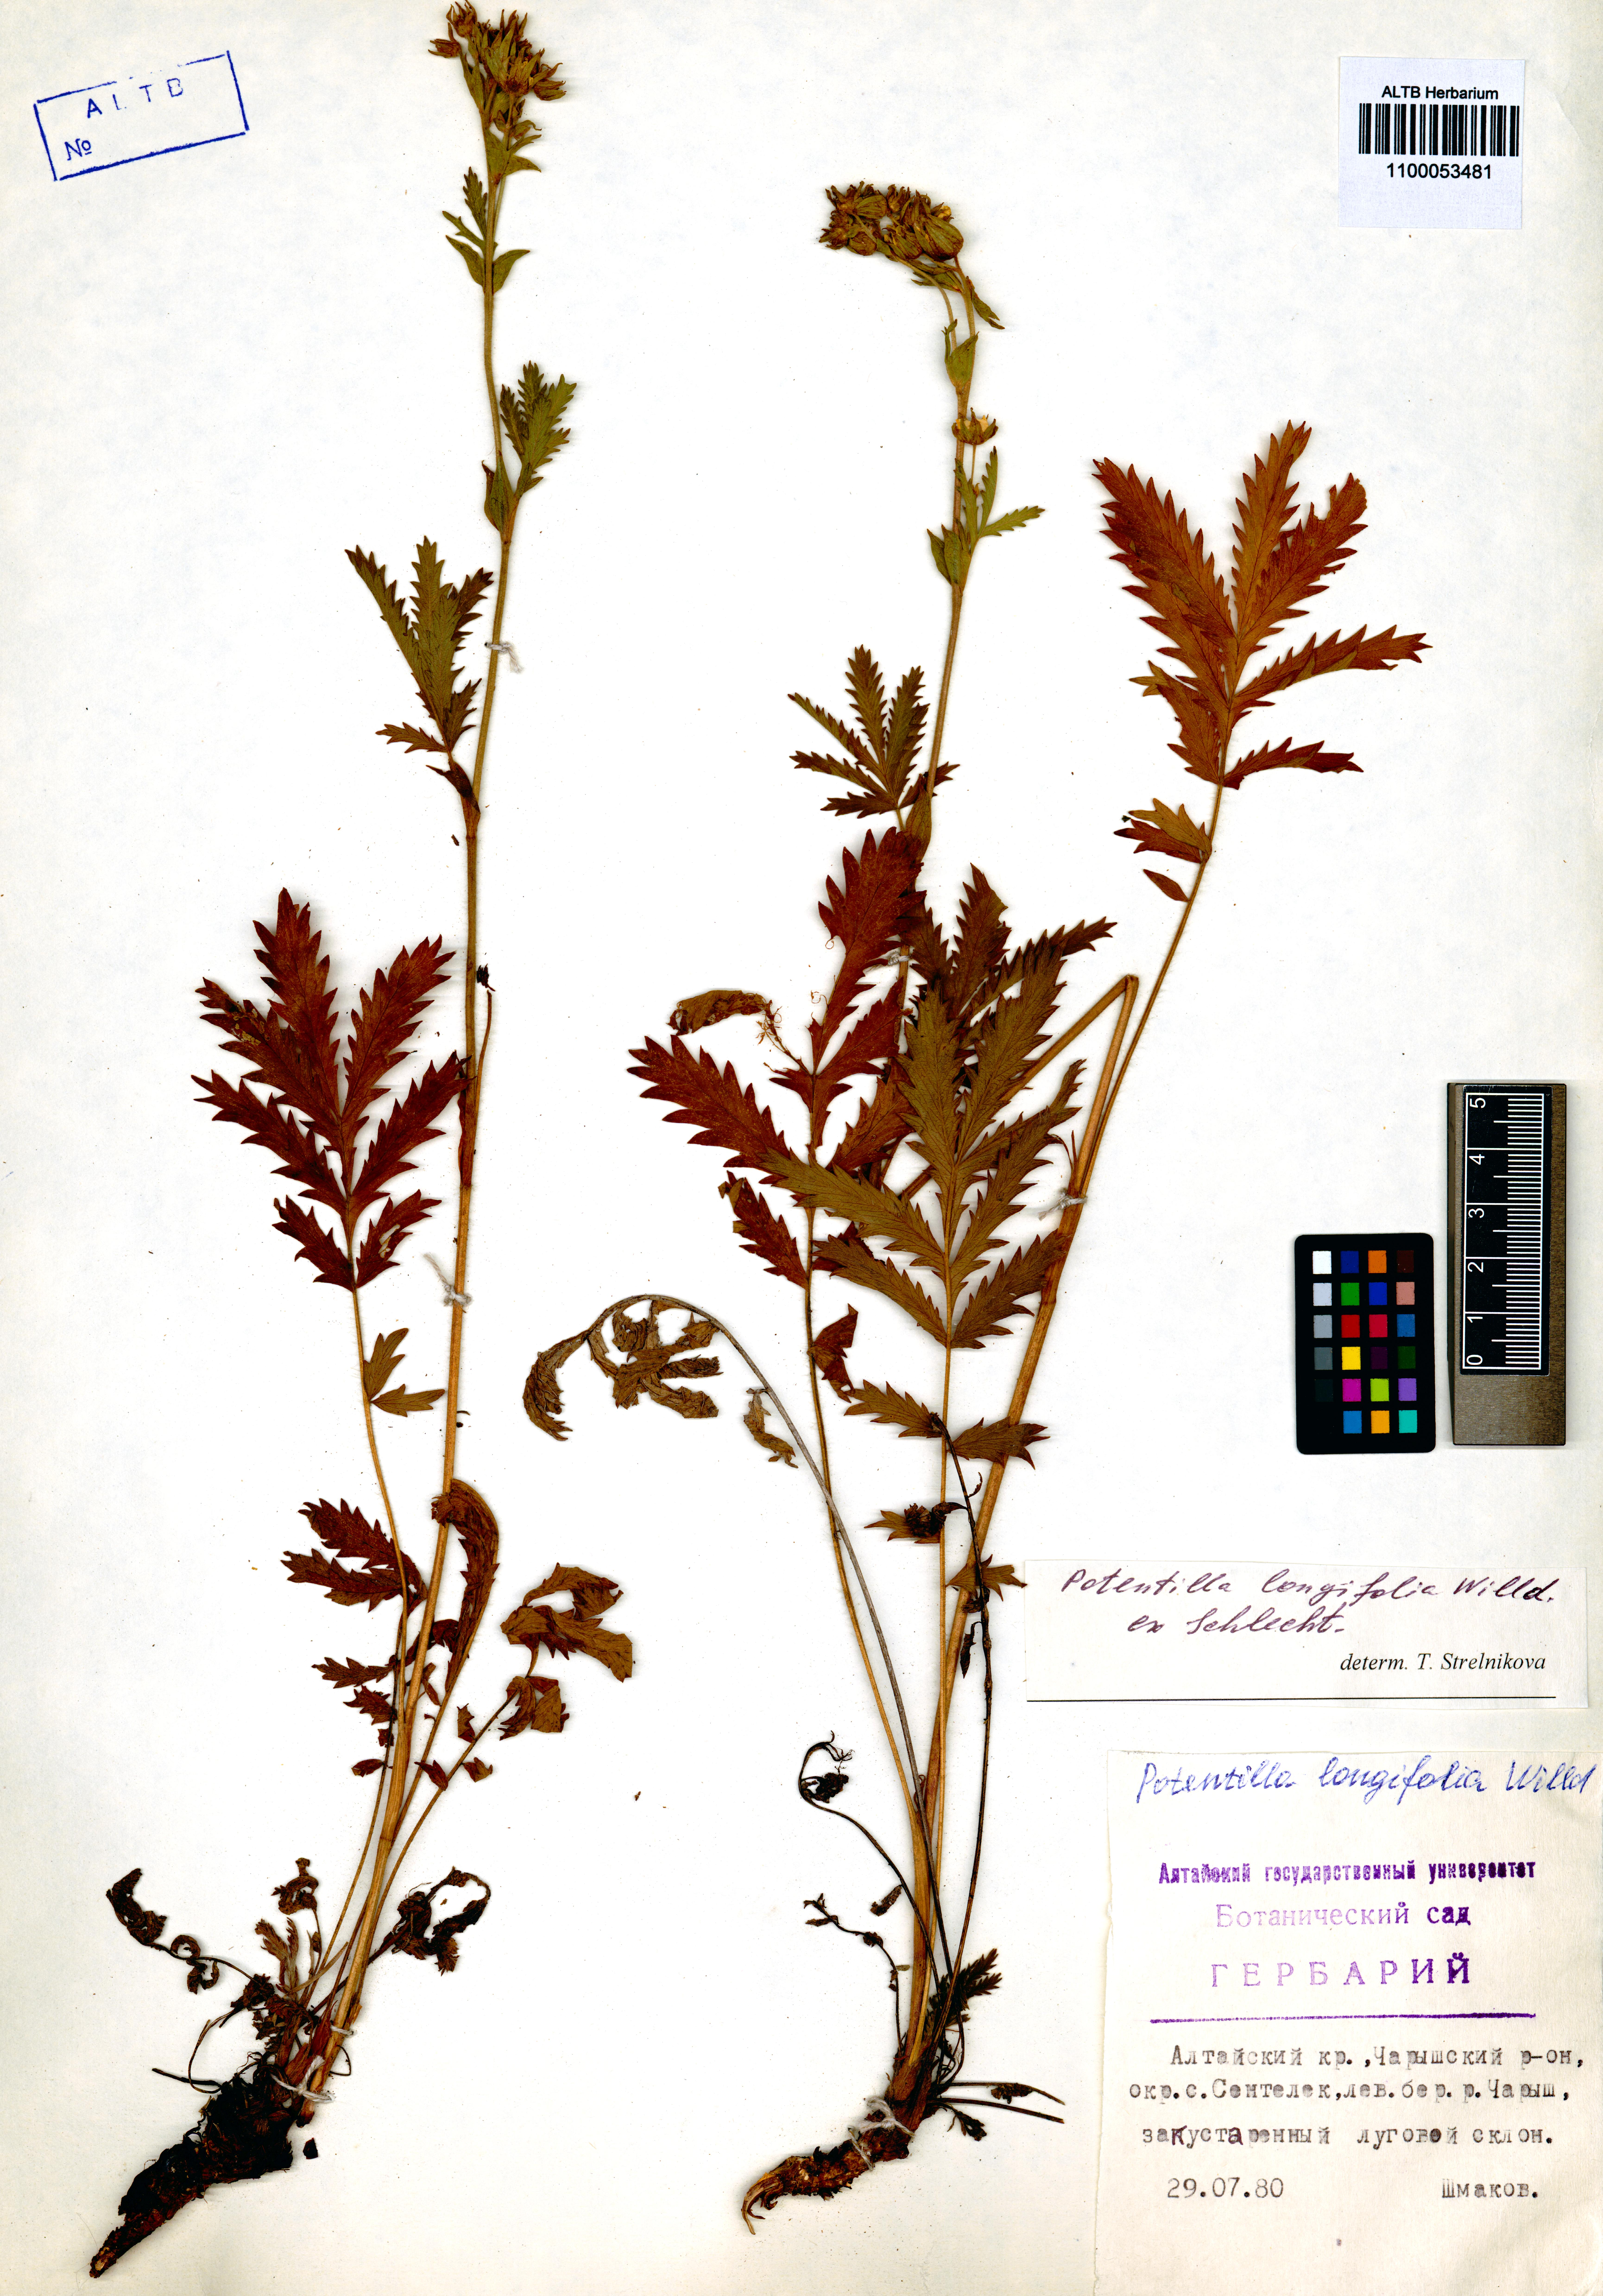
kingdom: Plantae
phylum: Tracheophyta
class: Magnoliopsida
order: Rosales
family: Rosaceae
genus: Potentilla
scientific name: Potentilla longifolia
